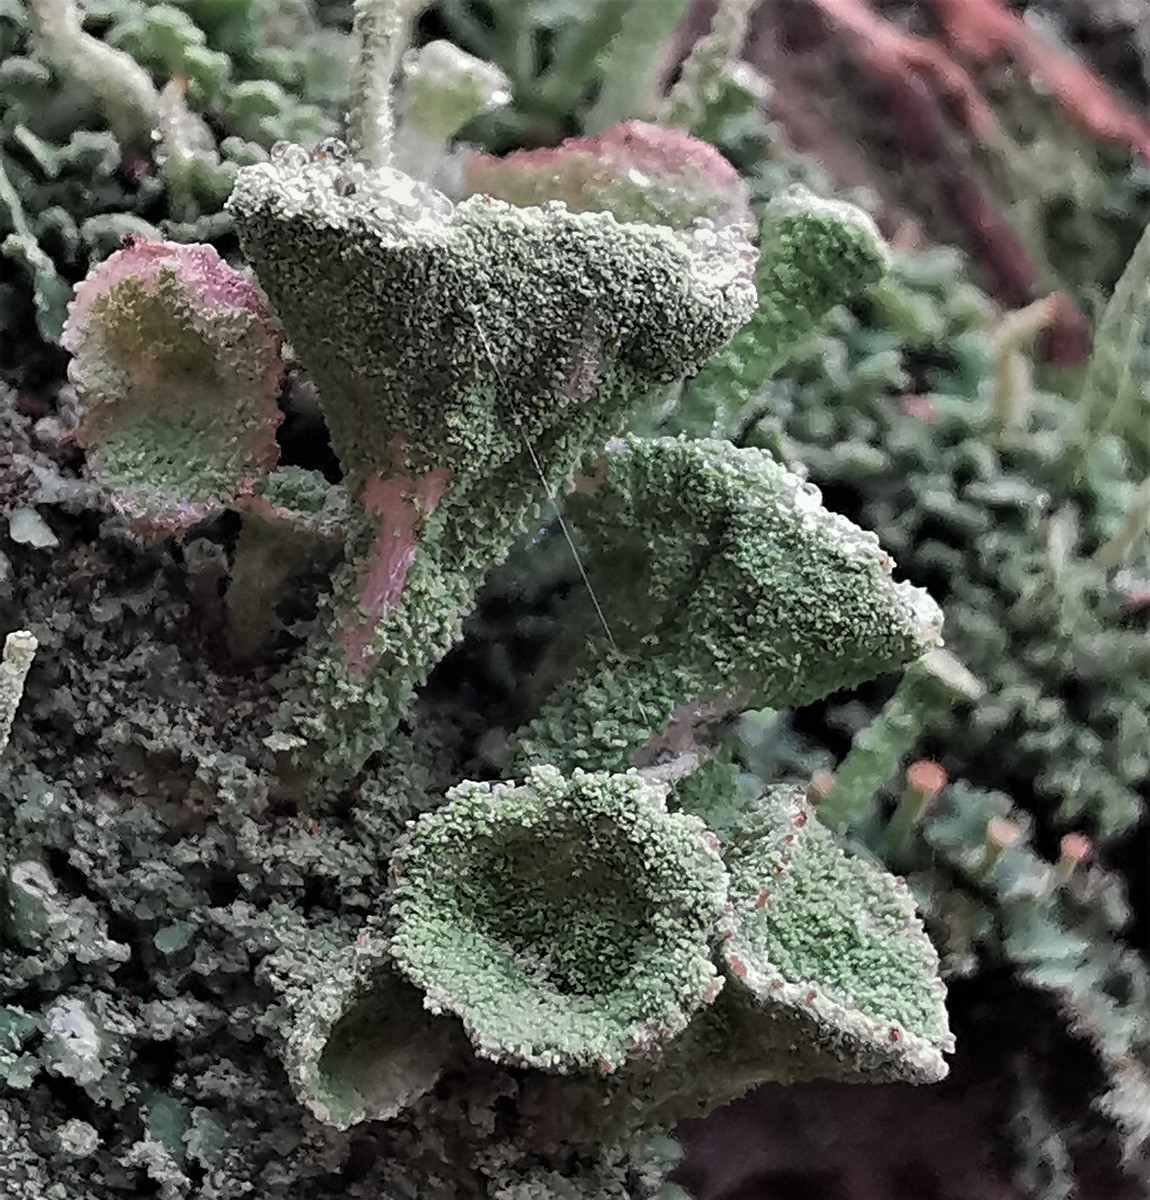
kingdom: Fungi
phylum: Ascomycota
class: Lecanoromycetes
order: Lecanorales
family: Cladoniaceae
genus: Cladonia
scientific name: Cladonia
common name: brungrøn bægerlav
